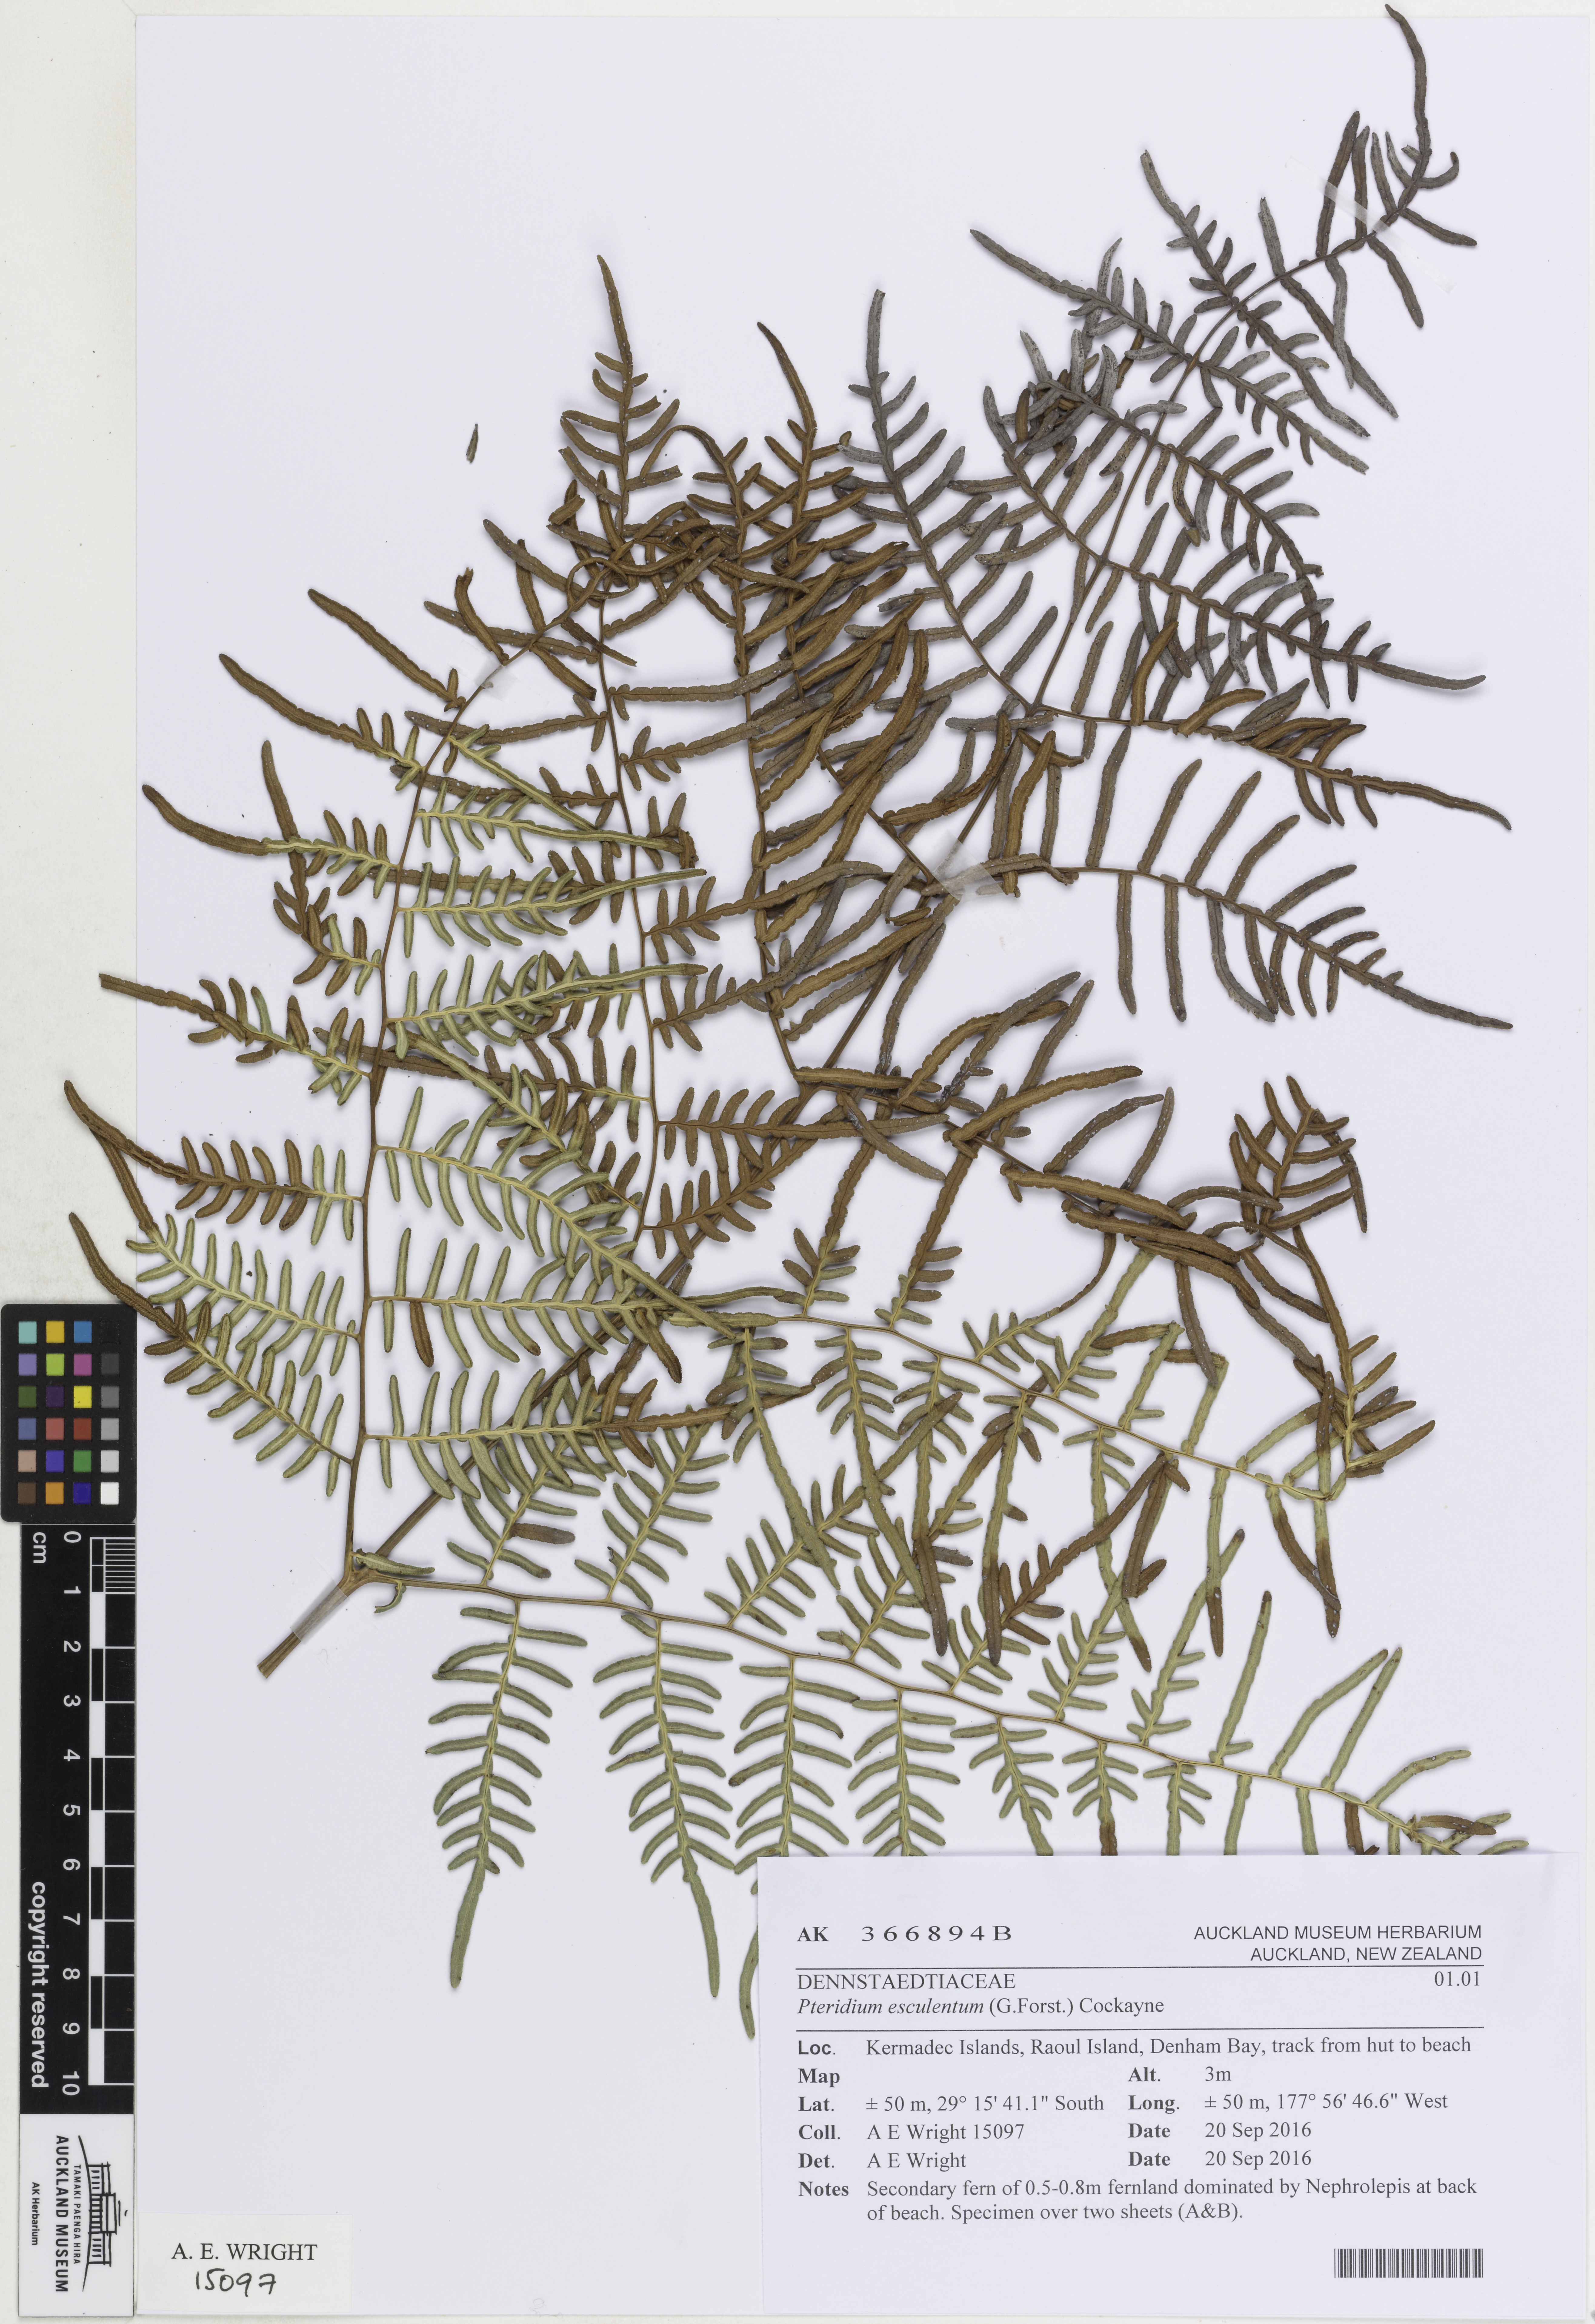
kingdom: Plantae
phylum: Tracheophyta
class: Polypodiopsida
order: Polypodiales
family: Dennstaedtiaceae
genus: Pteridium
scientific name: Pteridium esculentum
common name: Bracken fern
